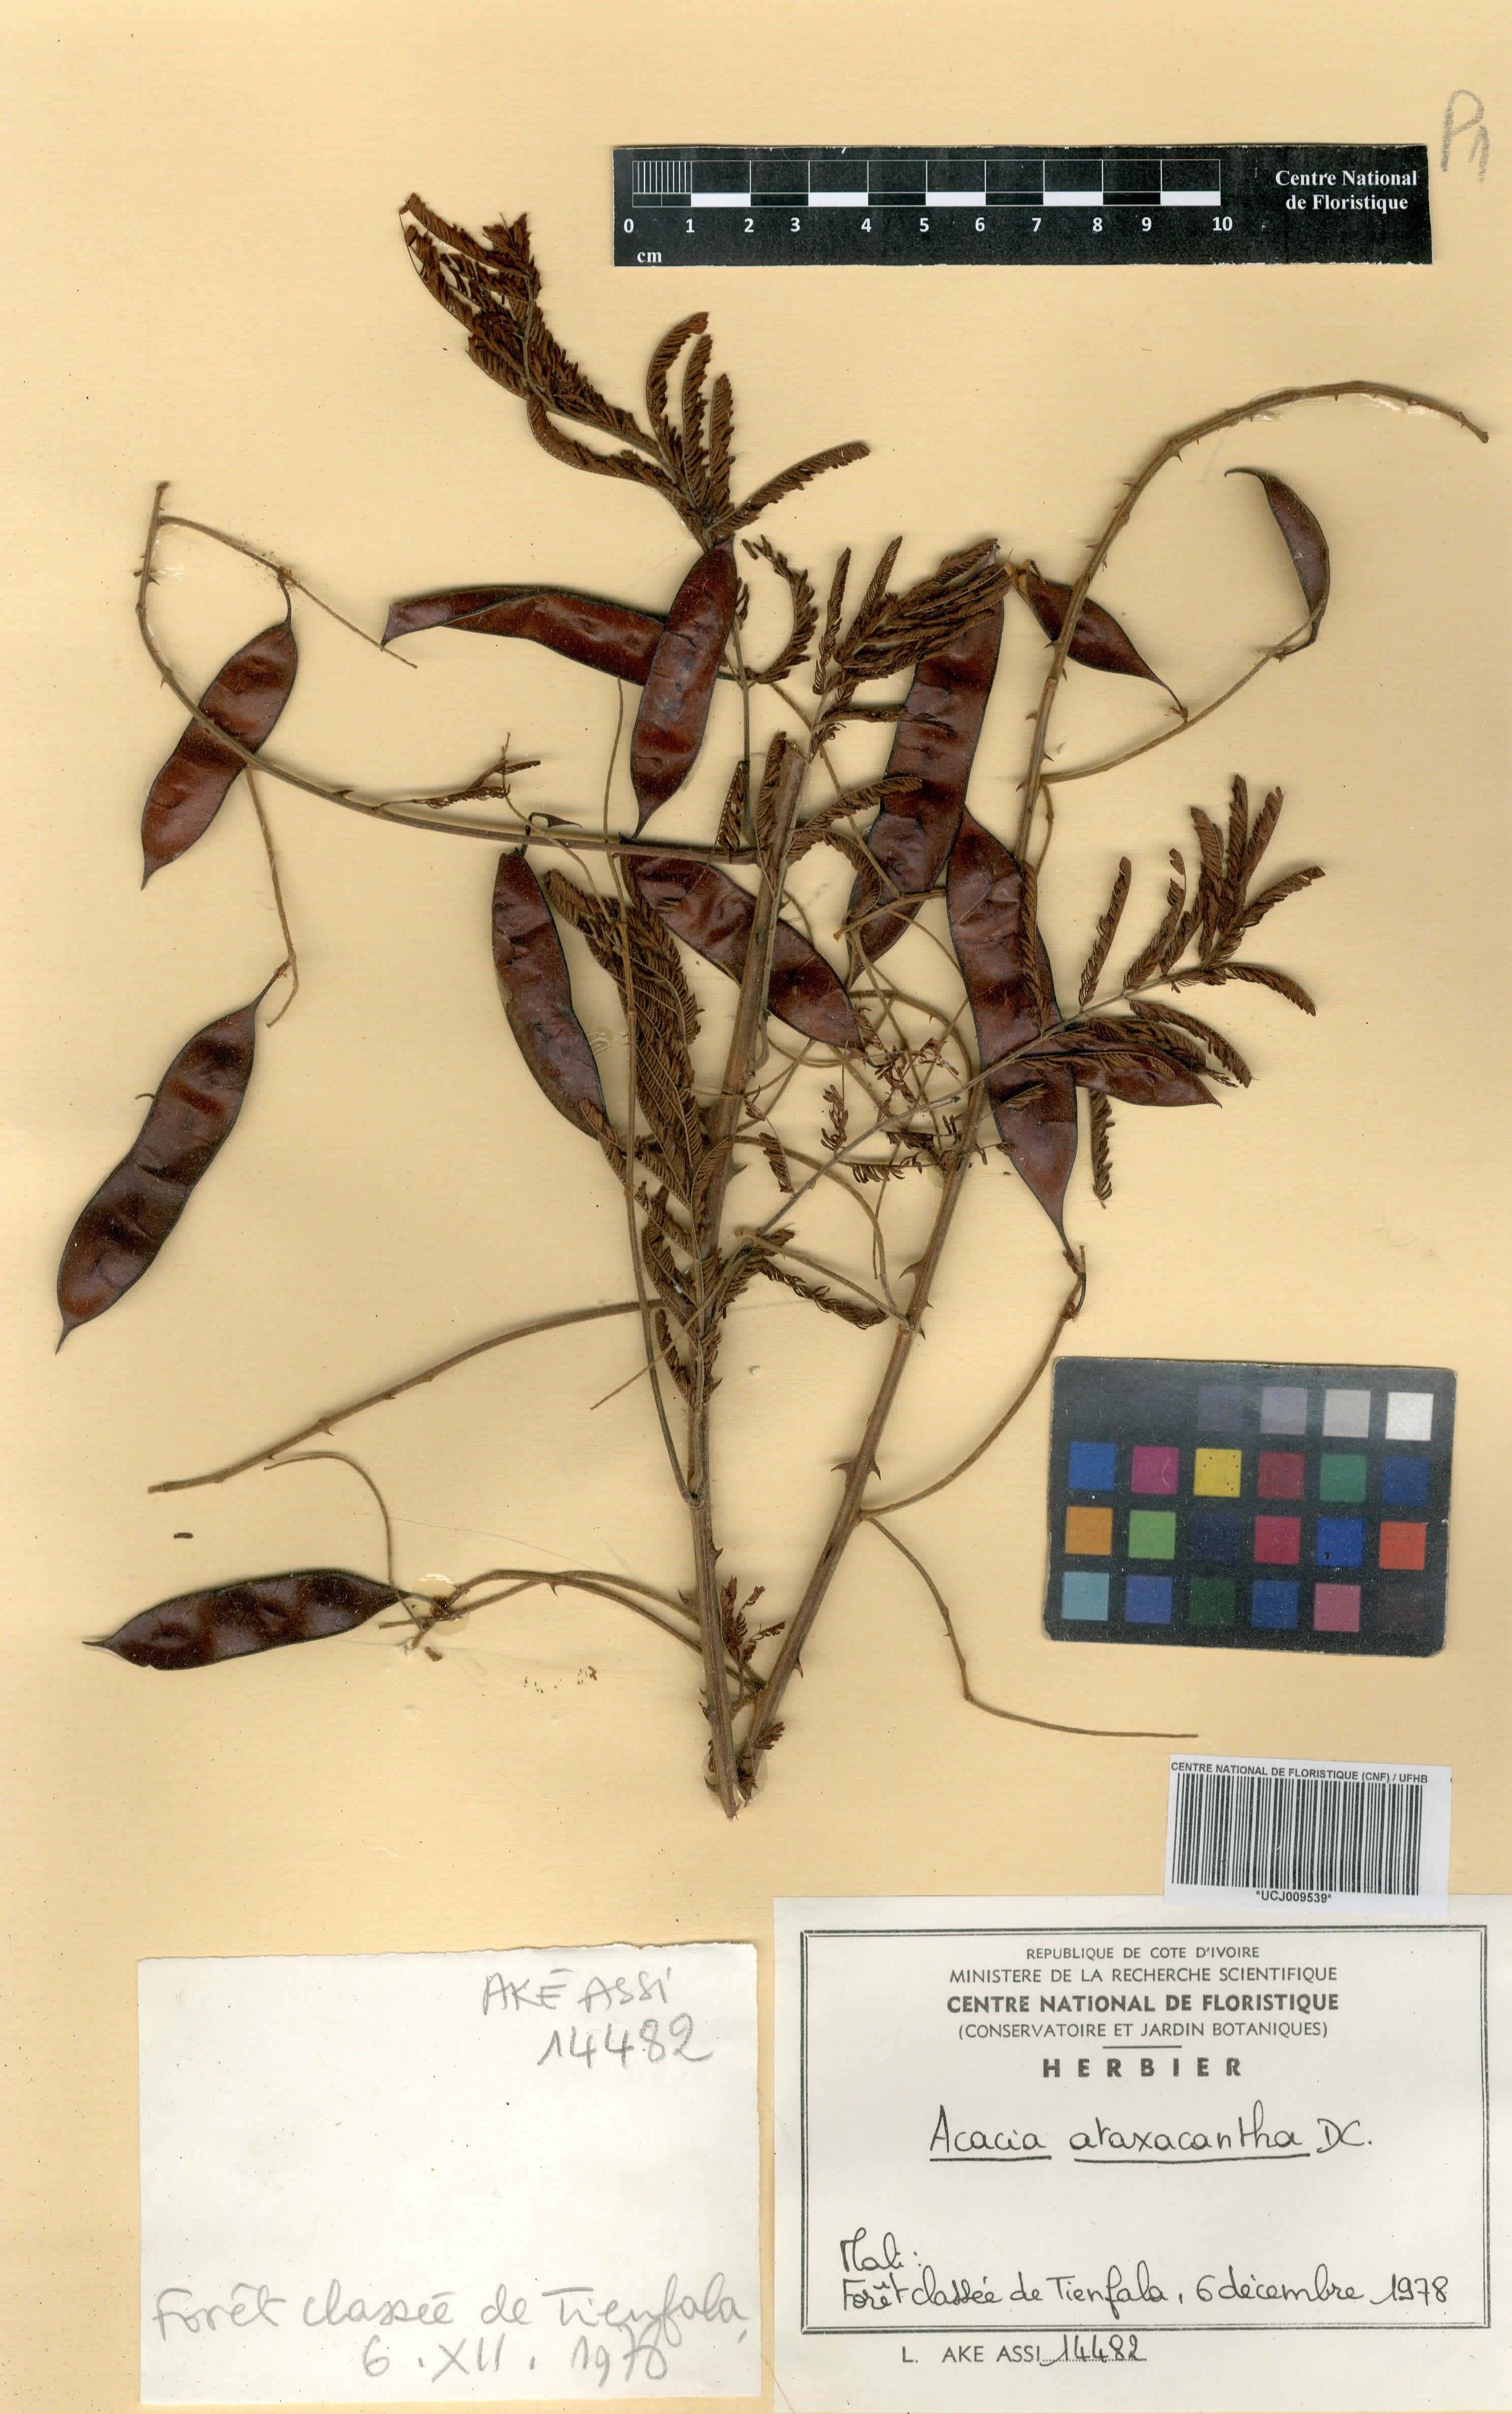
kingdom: Plantae
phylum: Tracheophyta
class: Magnoliopsida
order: Fabales
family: Fabaceae
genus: Senegalia
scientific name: Senegalia ataxacantha
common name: Flame acacia
